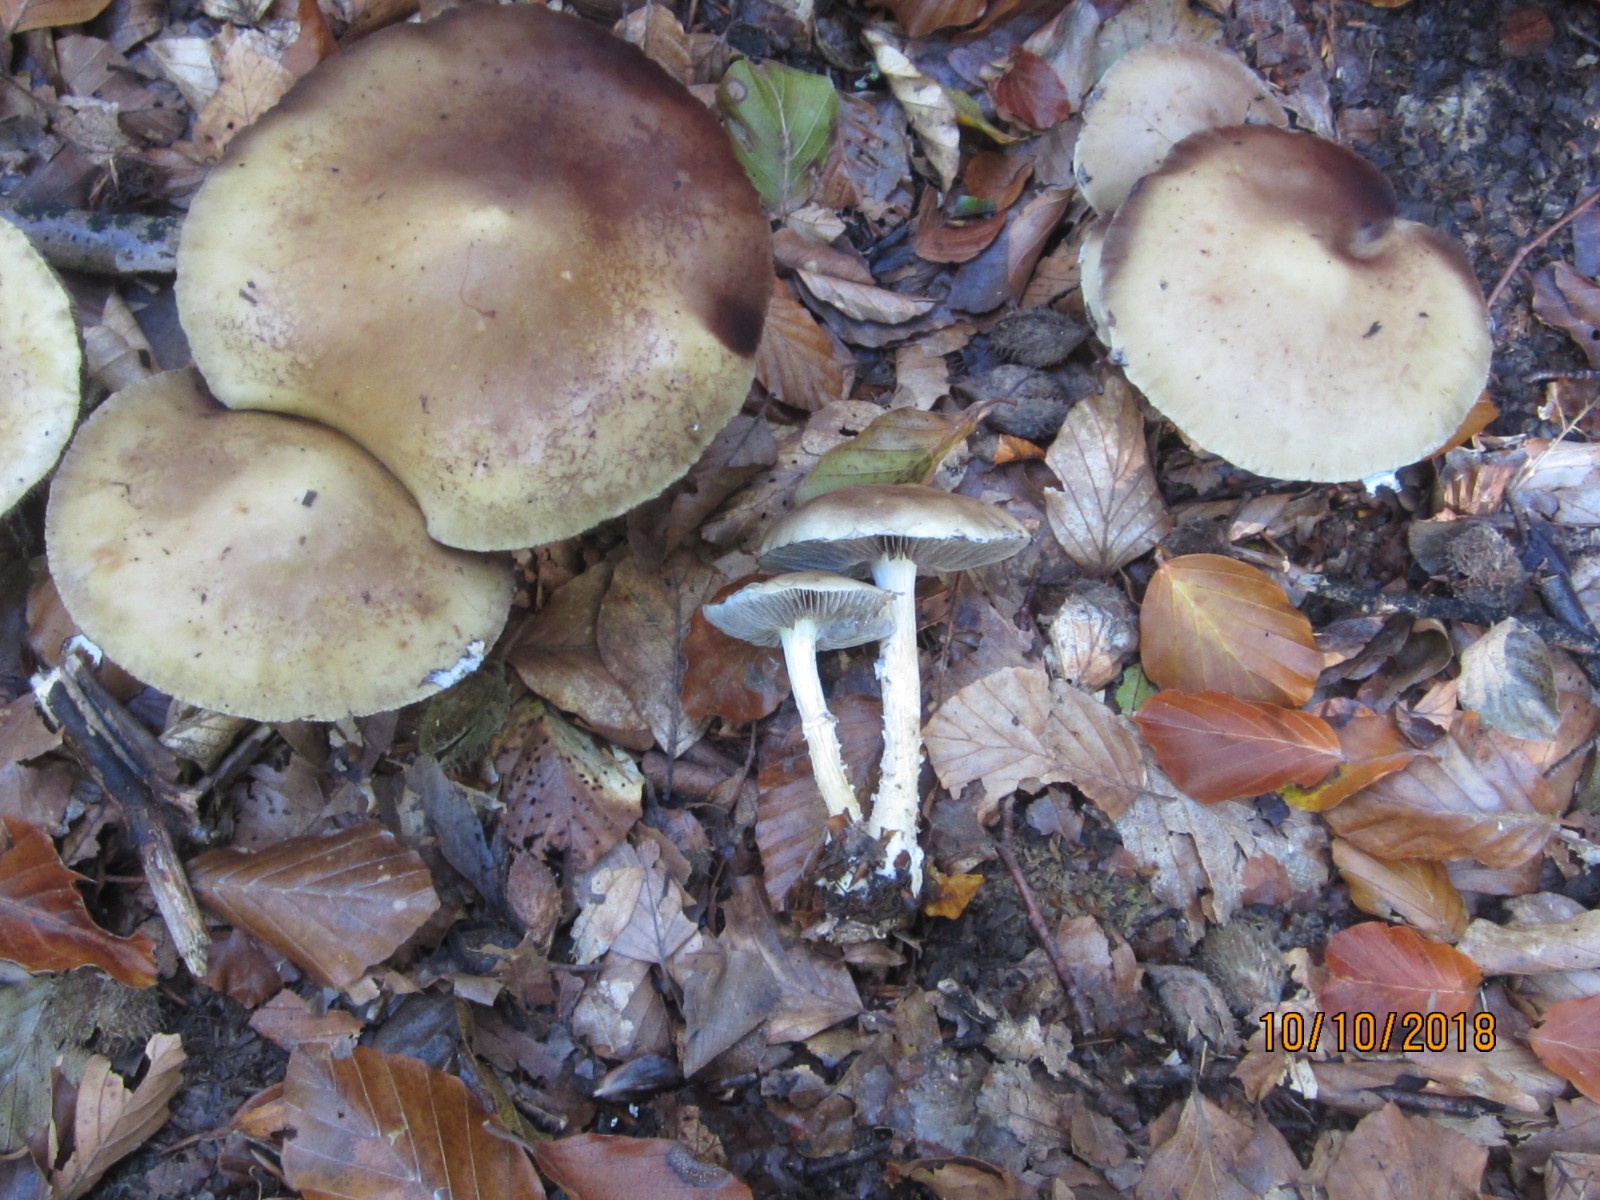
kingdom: Fungi
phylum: Basidiomycota
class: Agaricomycetes
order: Agaricales
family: Strophariaceae
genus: Stropharia
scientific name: Stropharia hornemannii
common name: nordisk bredblad
